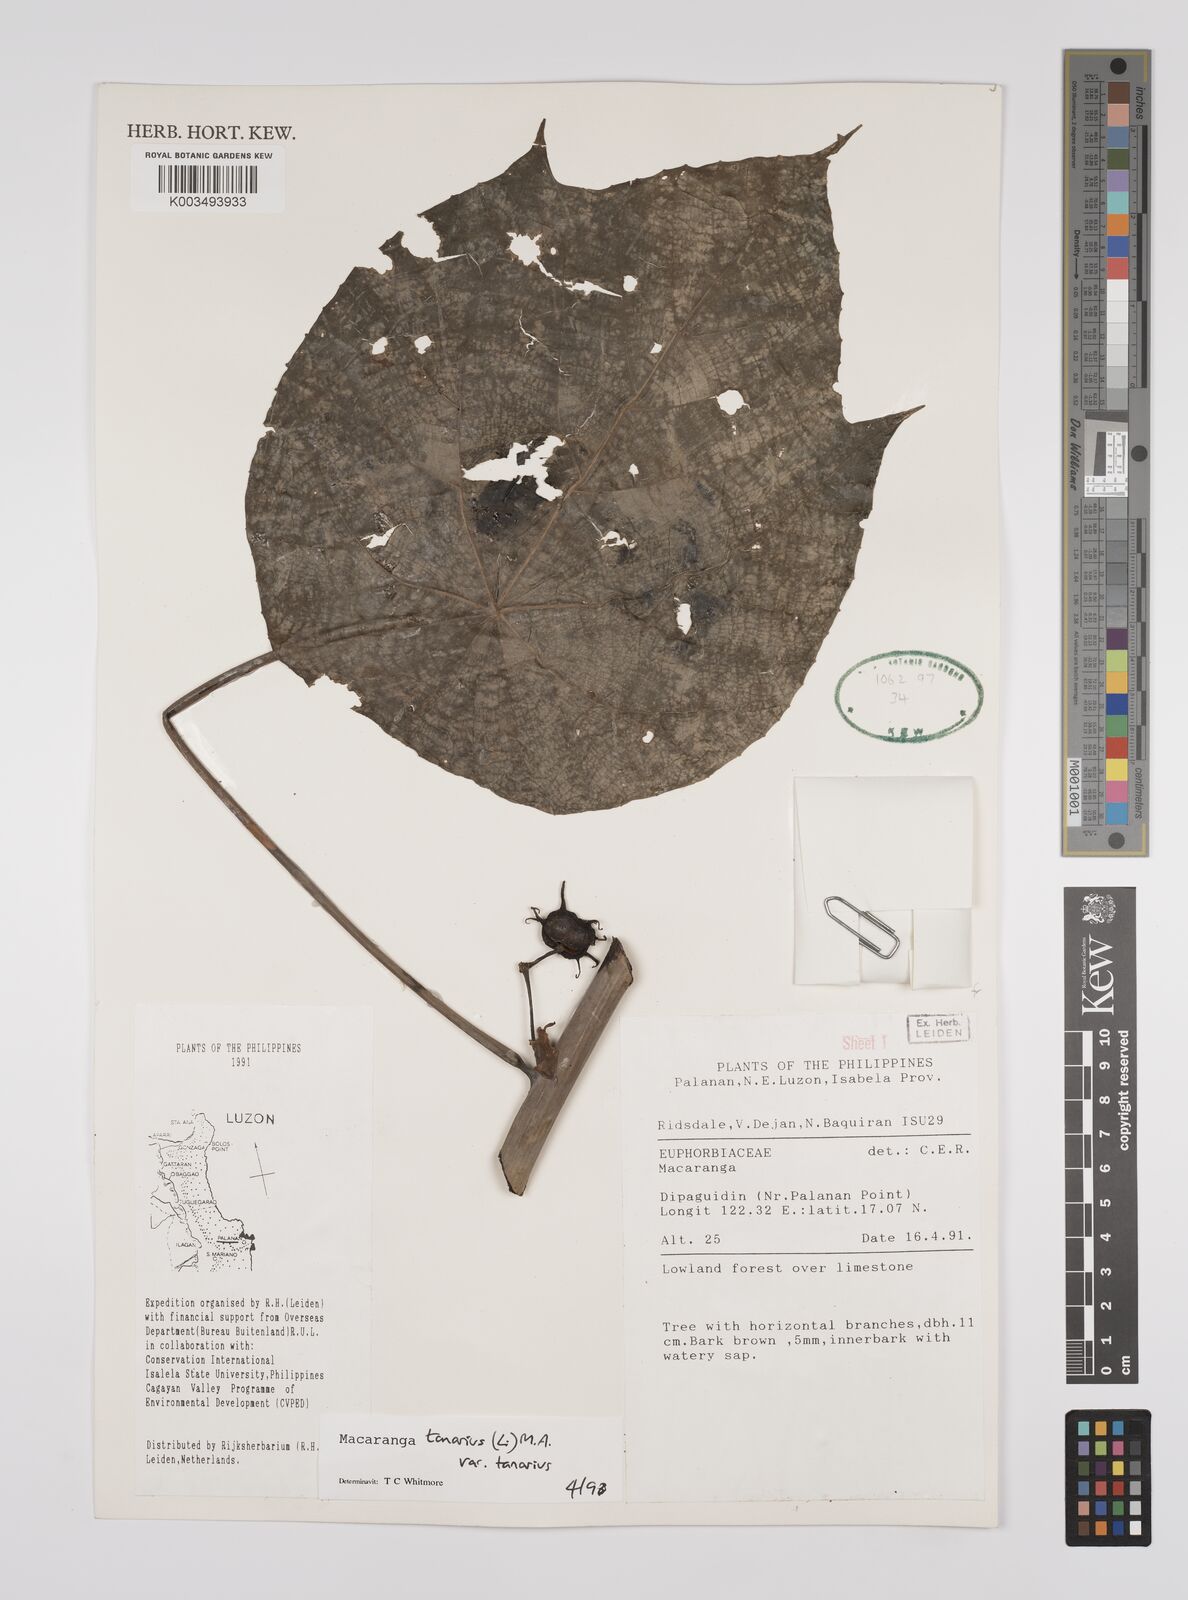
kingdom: Plantae
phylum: Tracheophyta
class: Magnoliopsida
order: Malpighiales
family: Euphorbiaceae
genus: Macaranga
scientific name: Macaranga tanarius
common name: Parasol leaf tree
